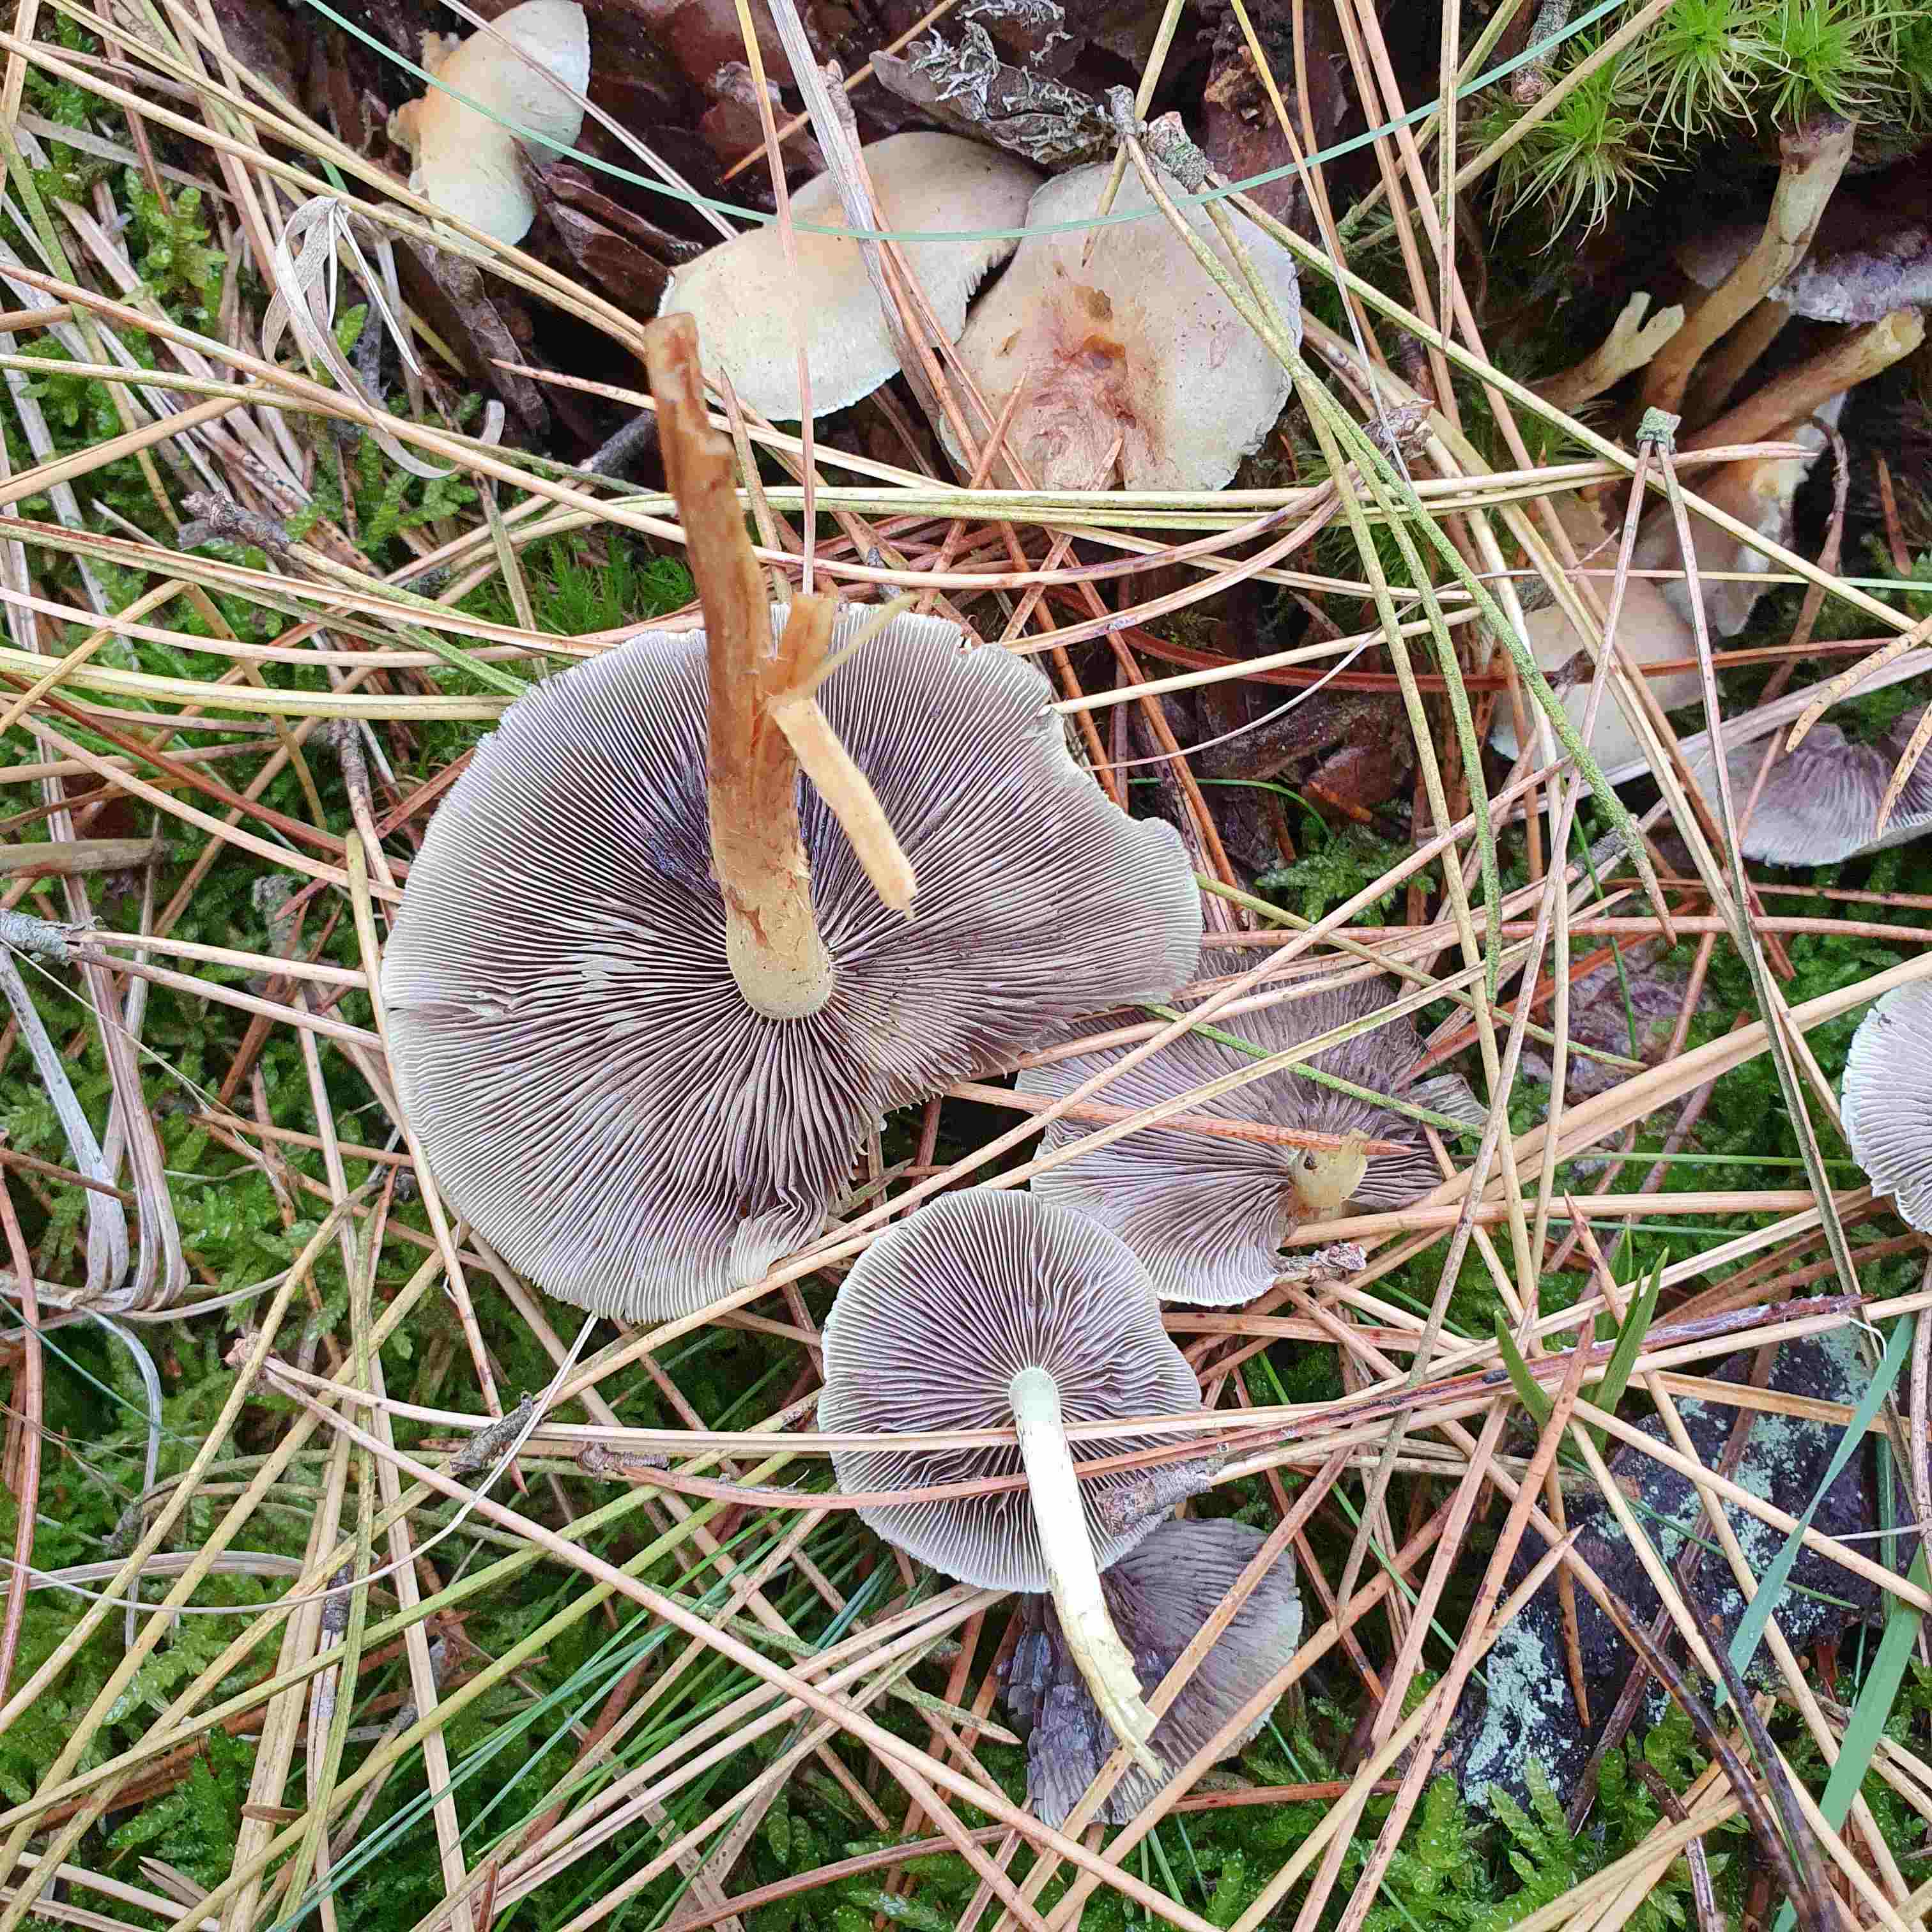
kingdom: Fungi
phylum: Basidiomycota
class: Agaricomycetes
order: Agaricales
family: Strophariaceae
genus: Hypholoma
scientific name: Hypholoma capnoides
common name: gran-svovlhat
